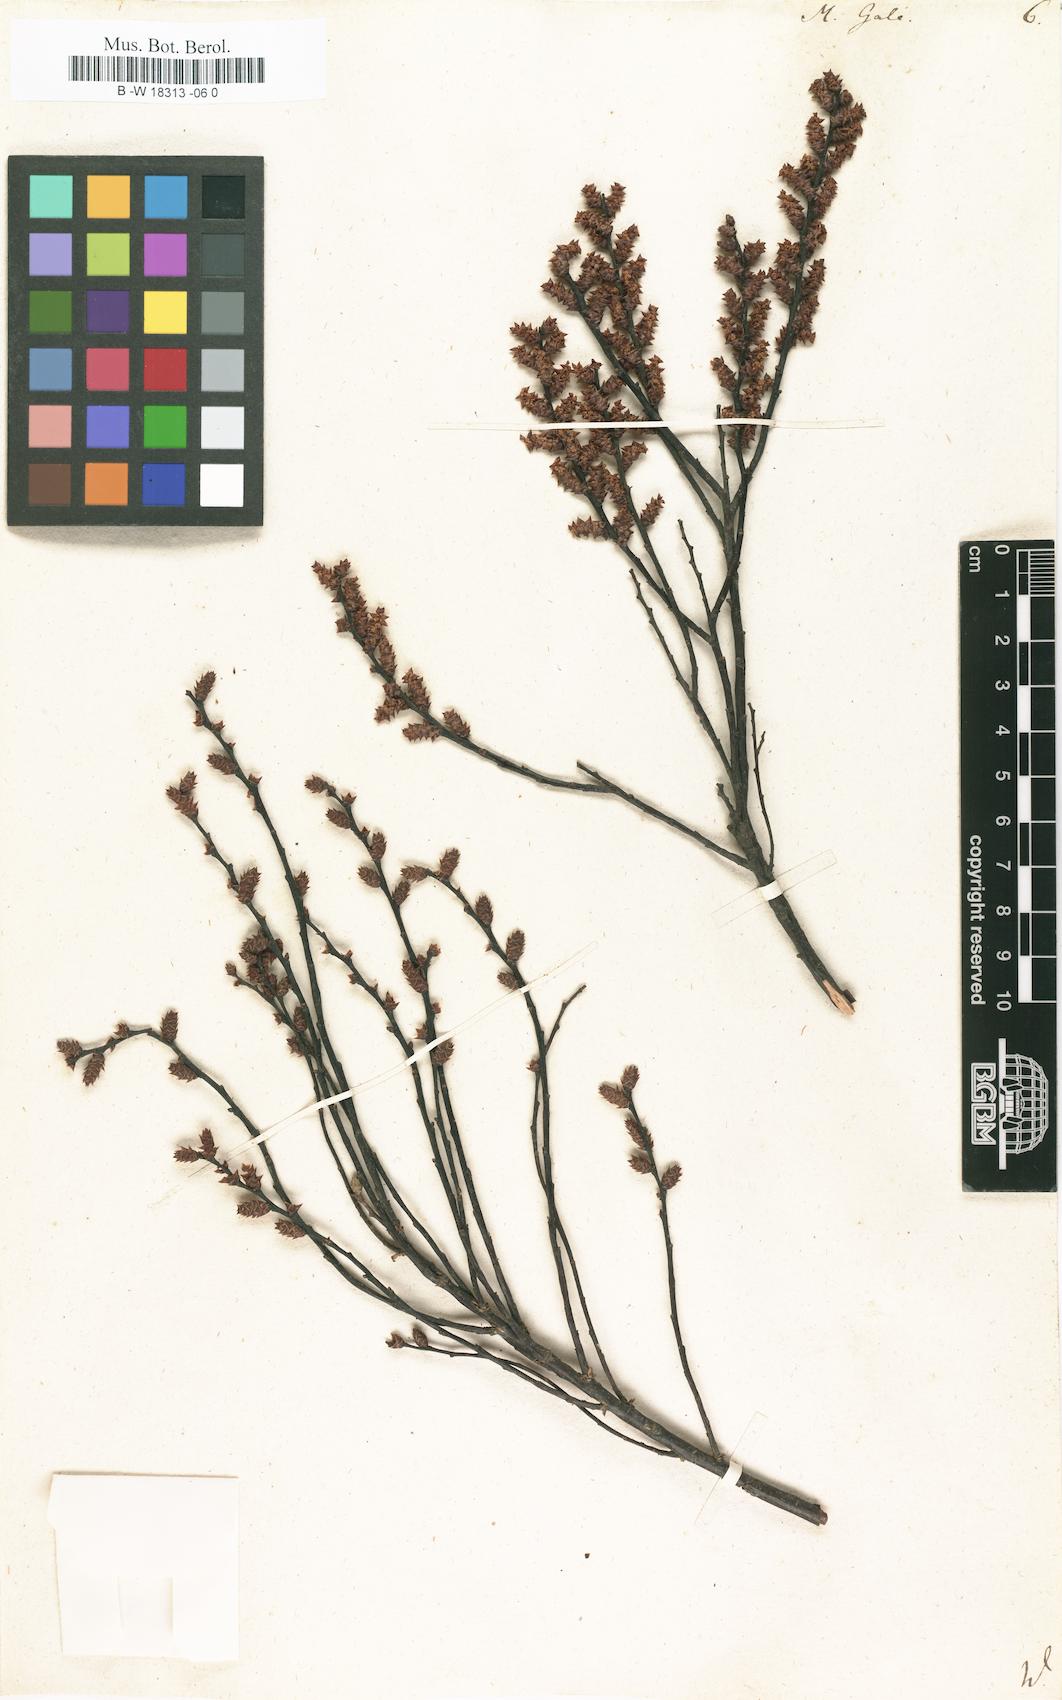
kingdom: Plantae
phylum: Tracheophyta
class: Magnoliopsida
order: Fagales
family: Myricaceae
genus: Myrica
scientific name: Myrica gale
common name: Sweet gale
